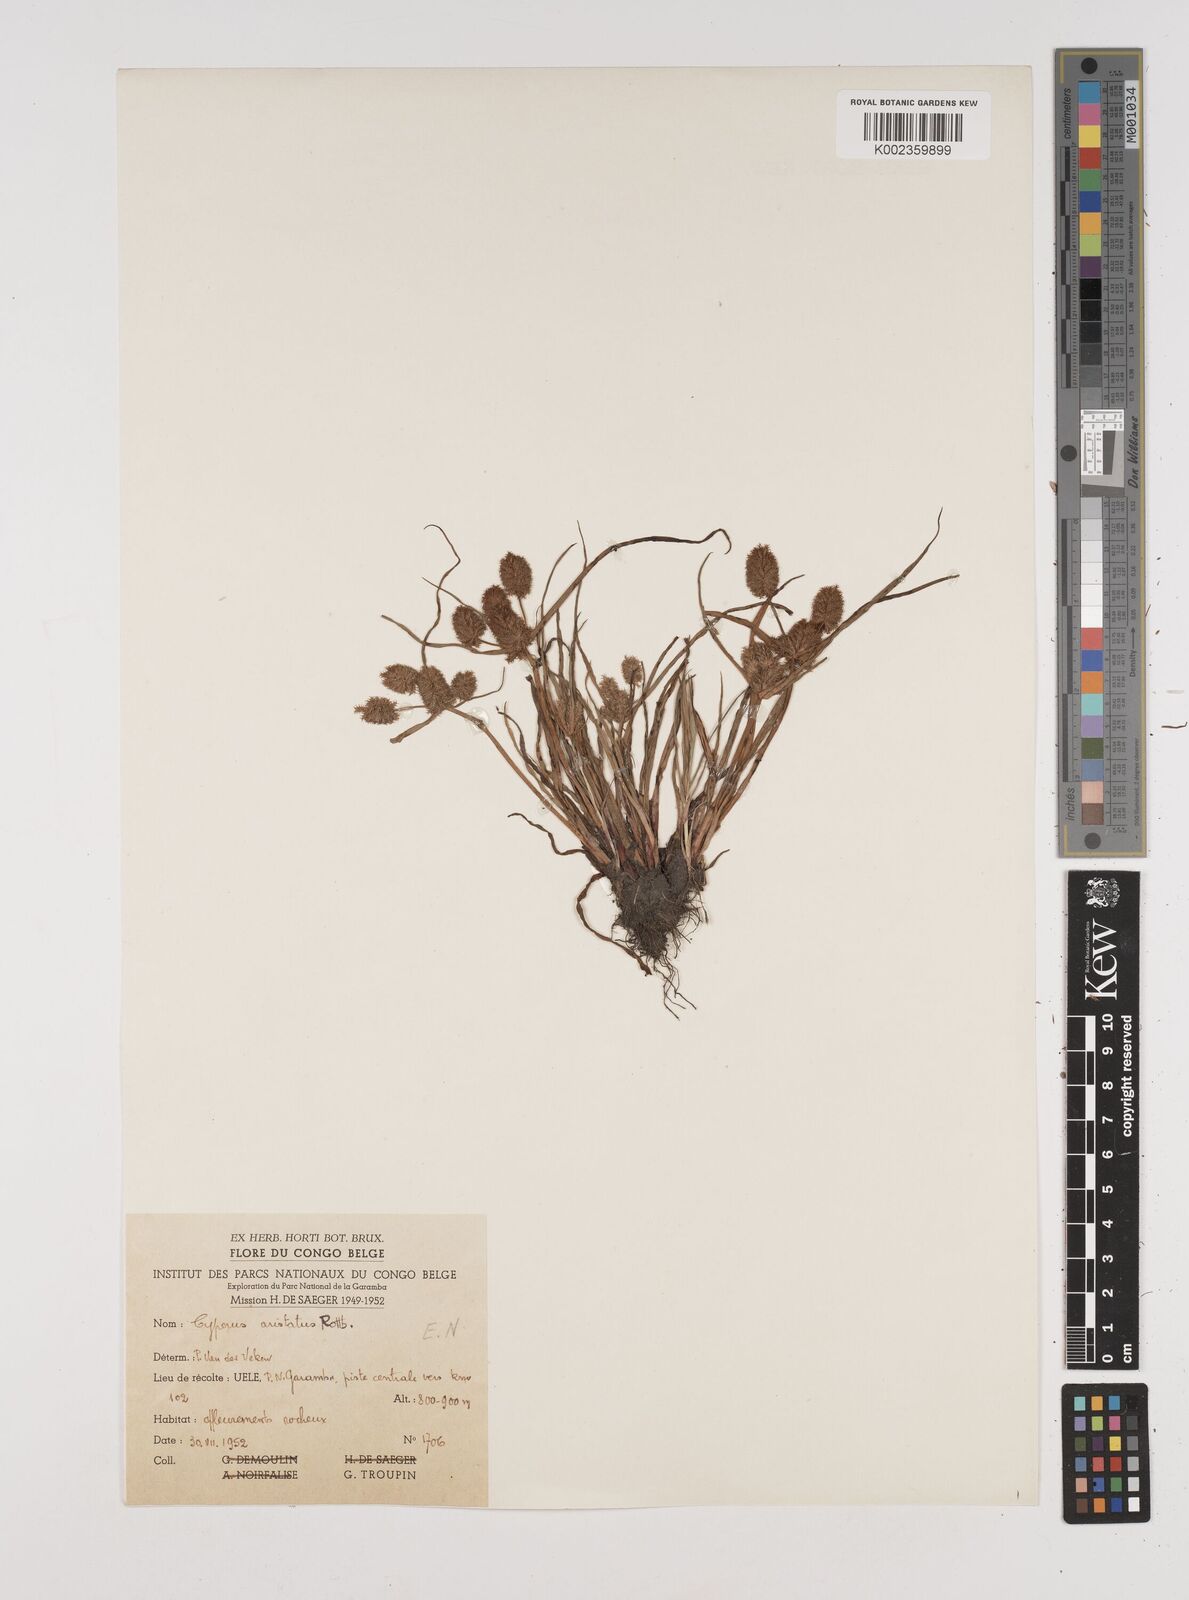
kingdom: Plantae
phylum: Tracheophyta
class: Liliopsida
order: Poales
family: Cyperaceae
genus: Cyperus
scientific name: Cyperus squarrosus
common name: Awned cyperus
